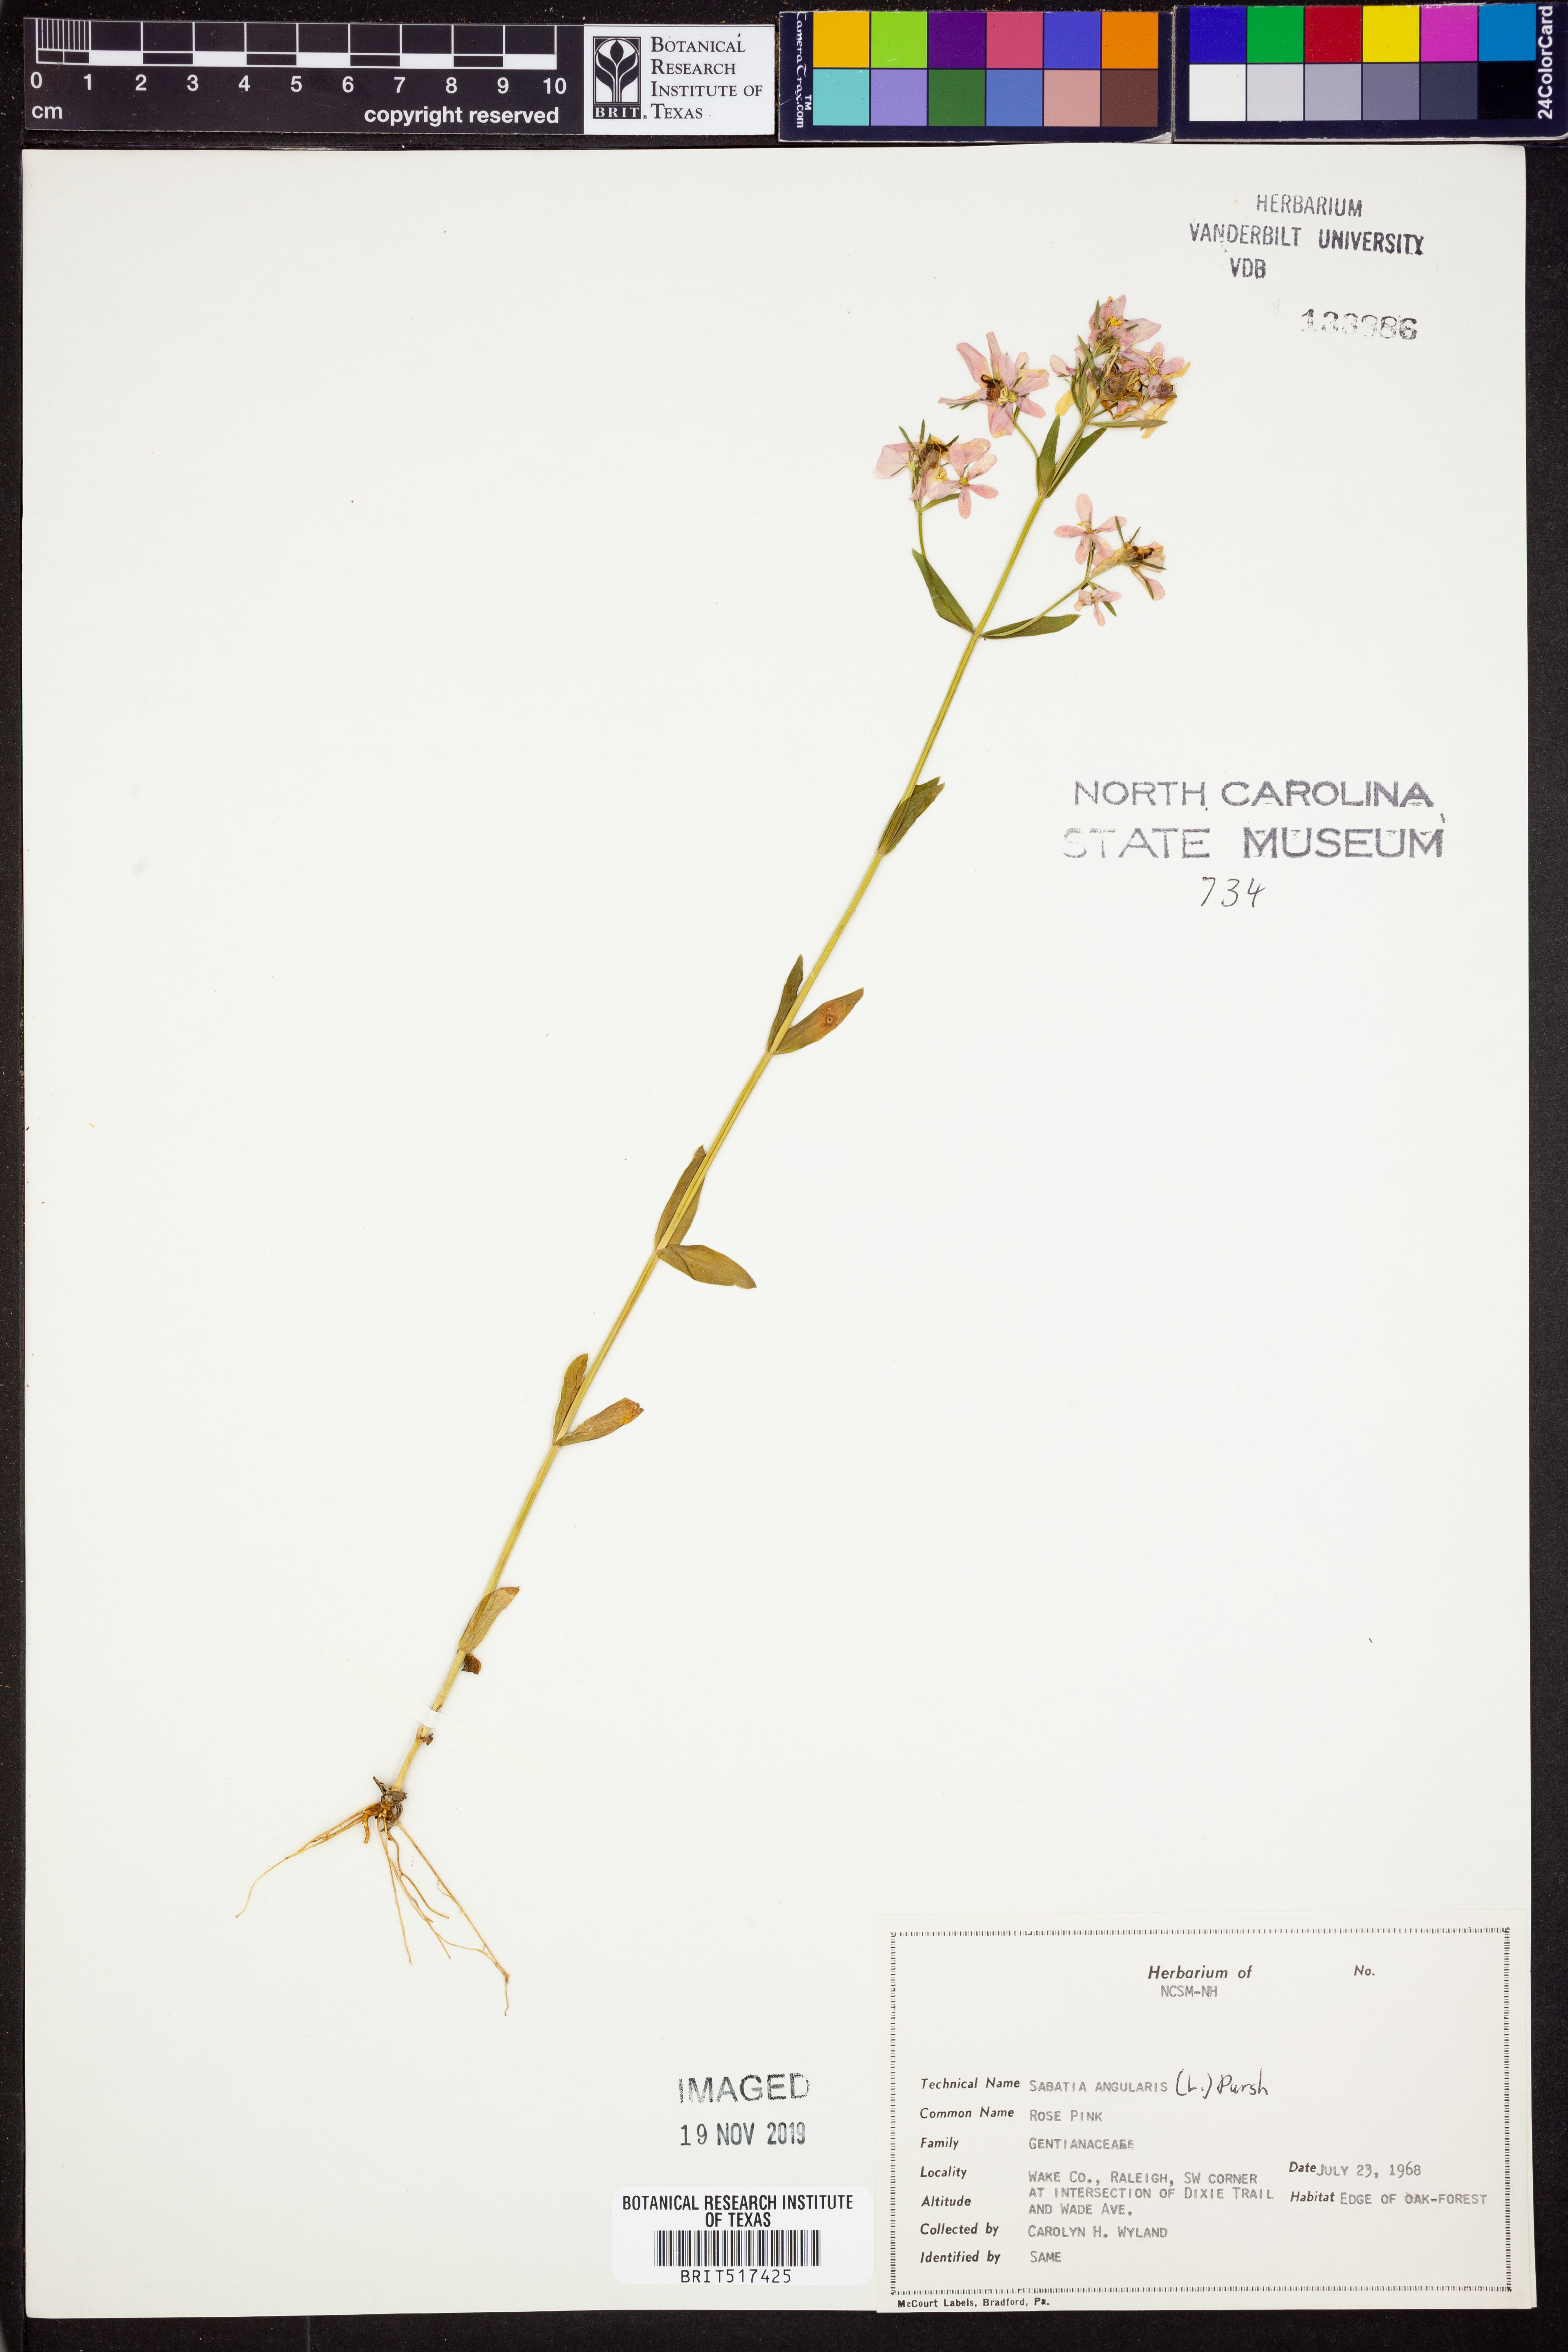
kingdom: Plantae
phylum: Tracheophyta
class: Magnoliopsida
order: Gentianales
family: Gentianaceae
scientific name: Gentianaceae
